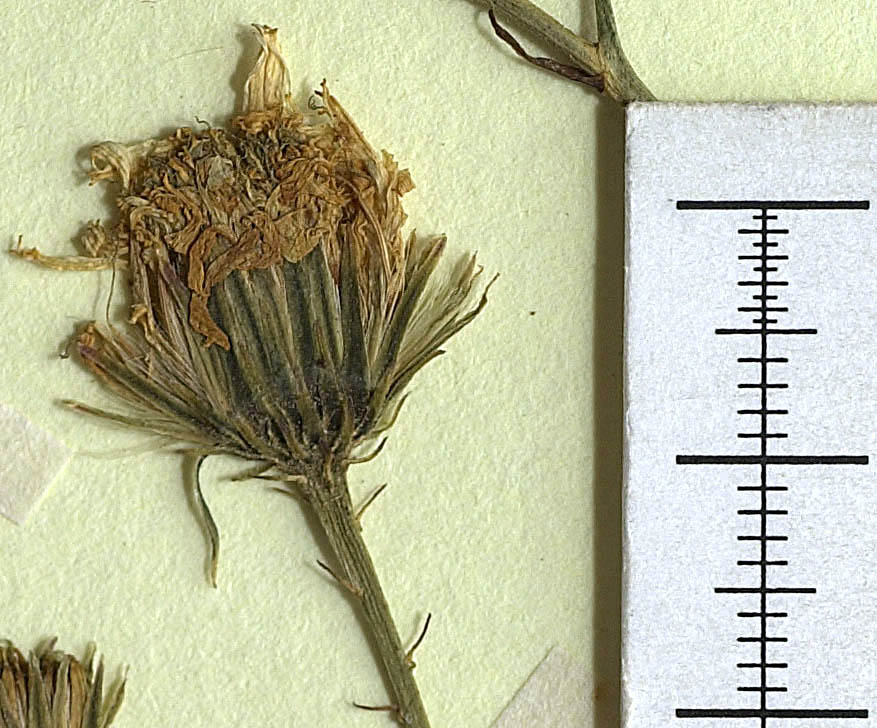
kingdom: Plantae
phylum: Tracheophyta
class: Magnoliopsida
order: Asterales
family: Asteraceae
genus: Hieracium
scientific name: Hieracium leiocephalum
